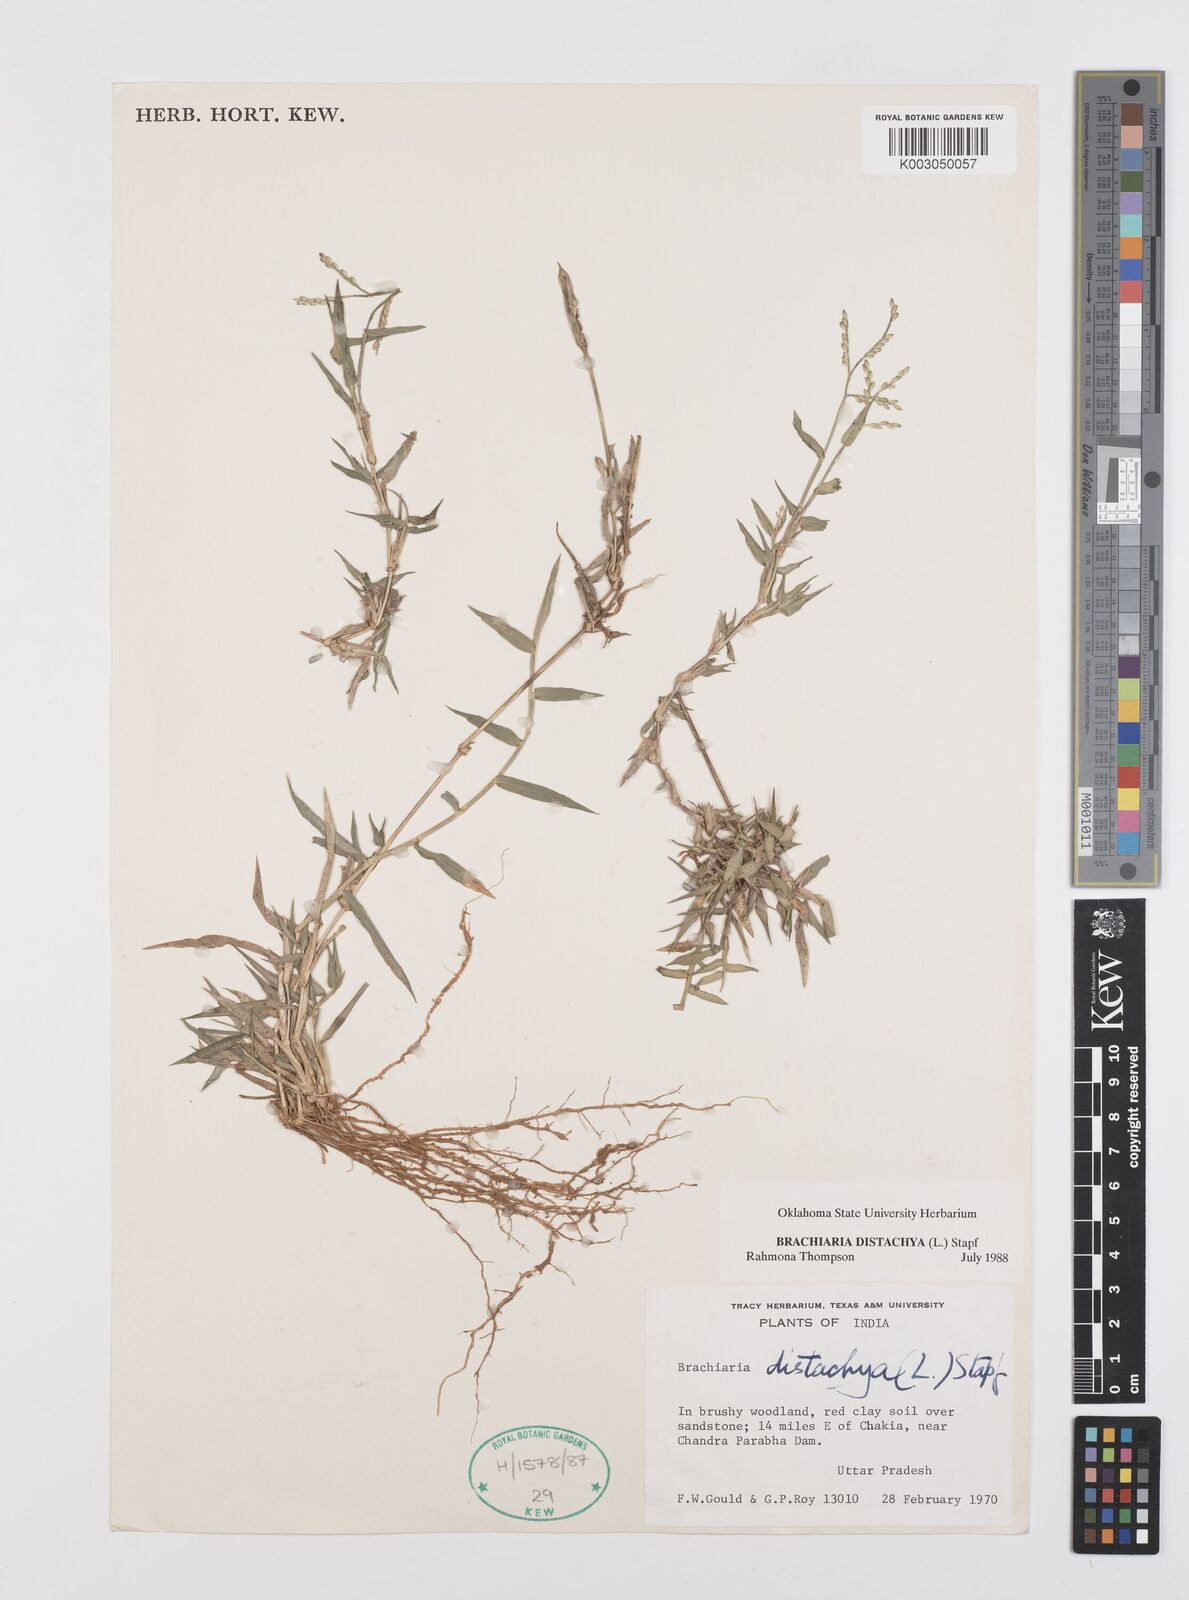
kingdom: Plantae
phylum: Tracheophyta
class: Liliopsida
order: Poales
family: Poaceae
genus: Urochloa
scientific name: Urochloa distachyos
